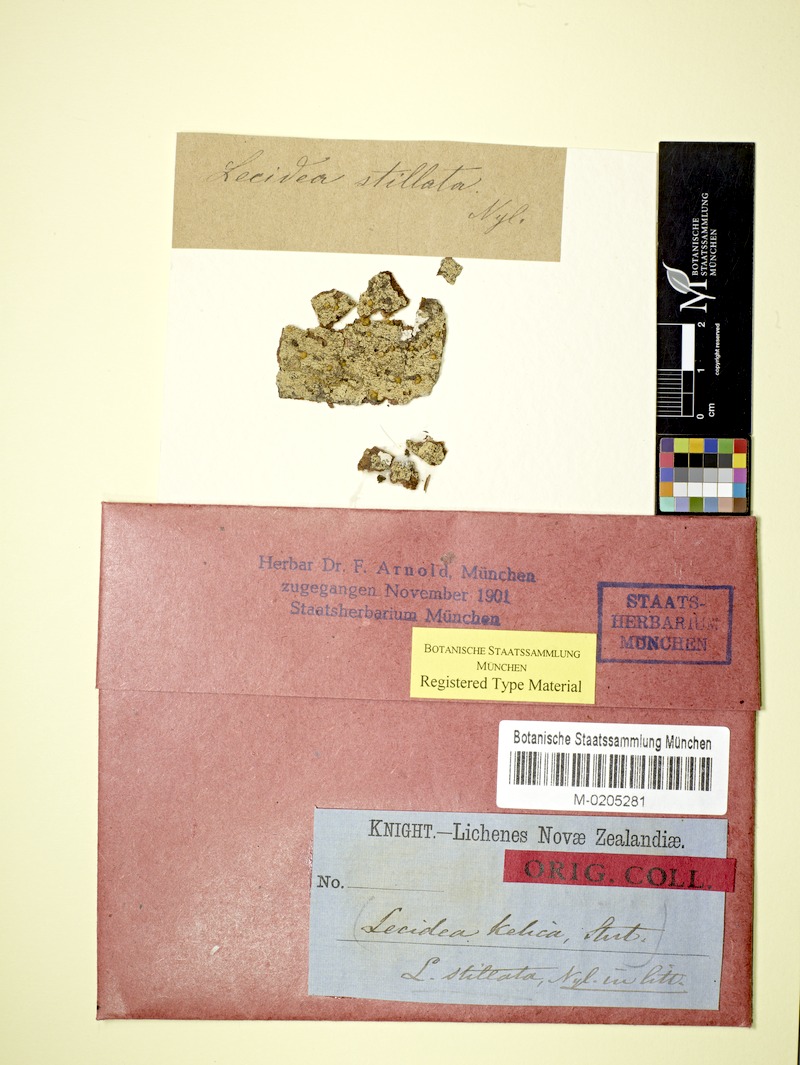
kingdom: Fungi
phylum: Ascomycota
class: Lecanoromycetes
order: Lecanorales
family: Ramalinaceae
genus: Stirtoniella
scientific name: Stirtoniella kelica
